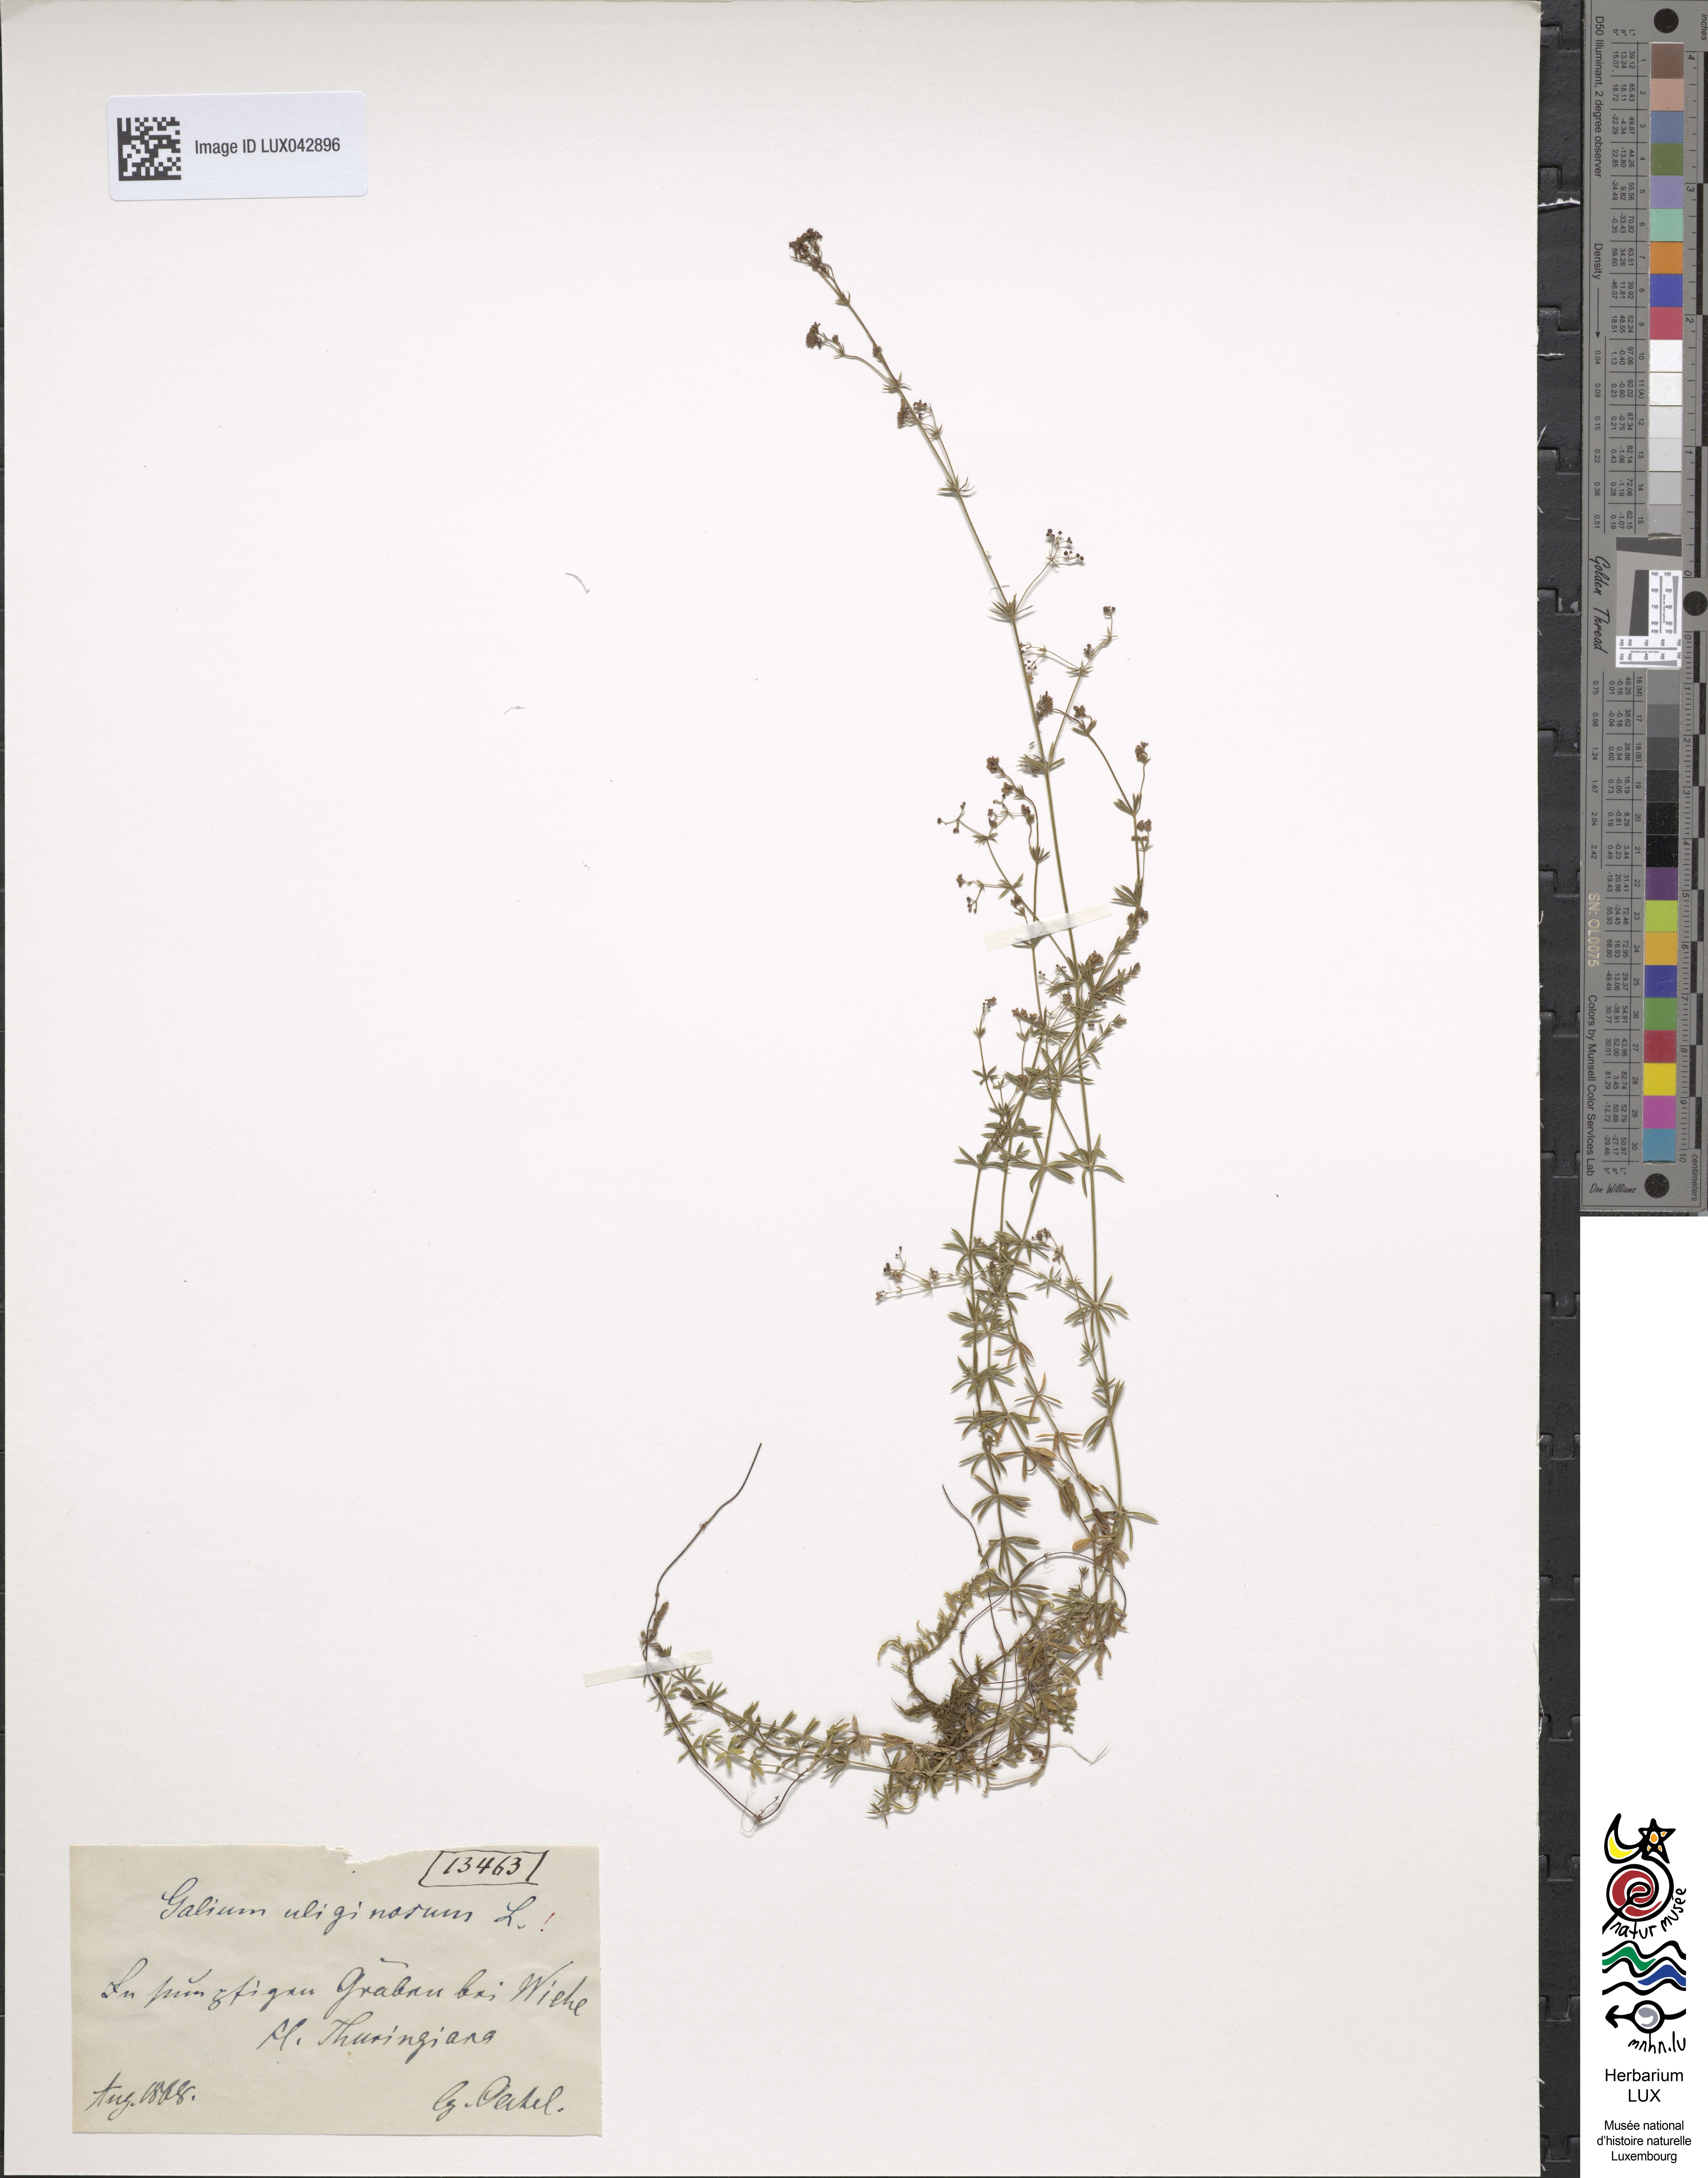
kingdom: Plantae
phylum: Tracheophyta
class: Magnoliopsida
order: Gentianales
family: Rubiaceae
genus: Galium
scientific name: Galium uliginosum
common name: Fen bedstraw
